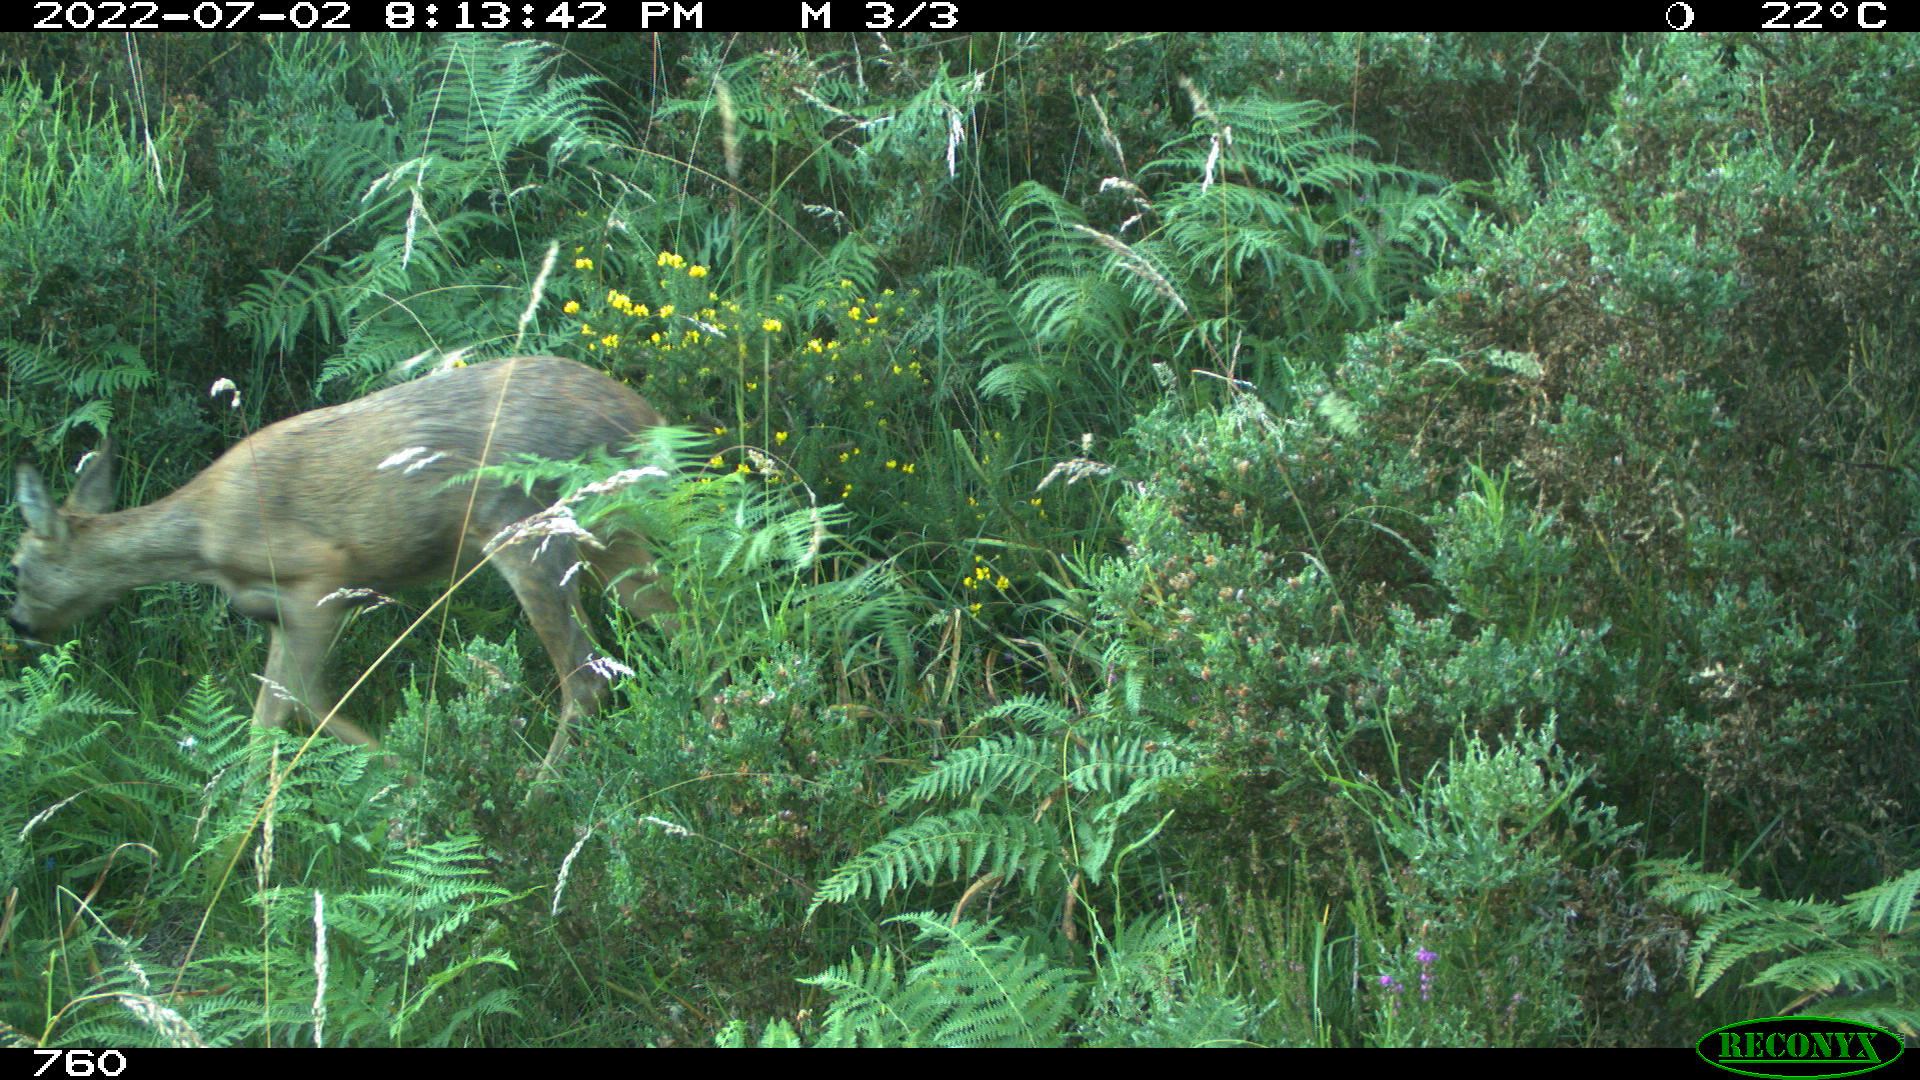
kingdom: Animalia
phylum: Chordata
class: Mammalia
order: Artiodactyla
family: Cervidae
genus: Capreolus
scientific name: Capreolus capreolus
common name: Western roe deer
